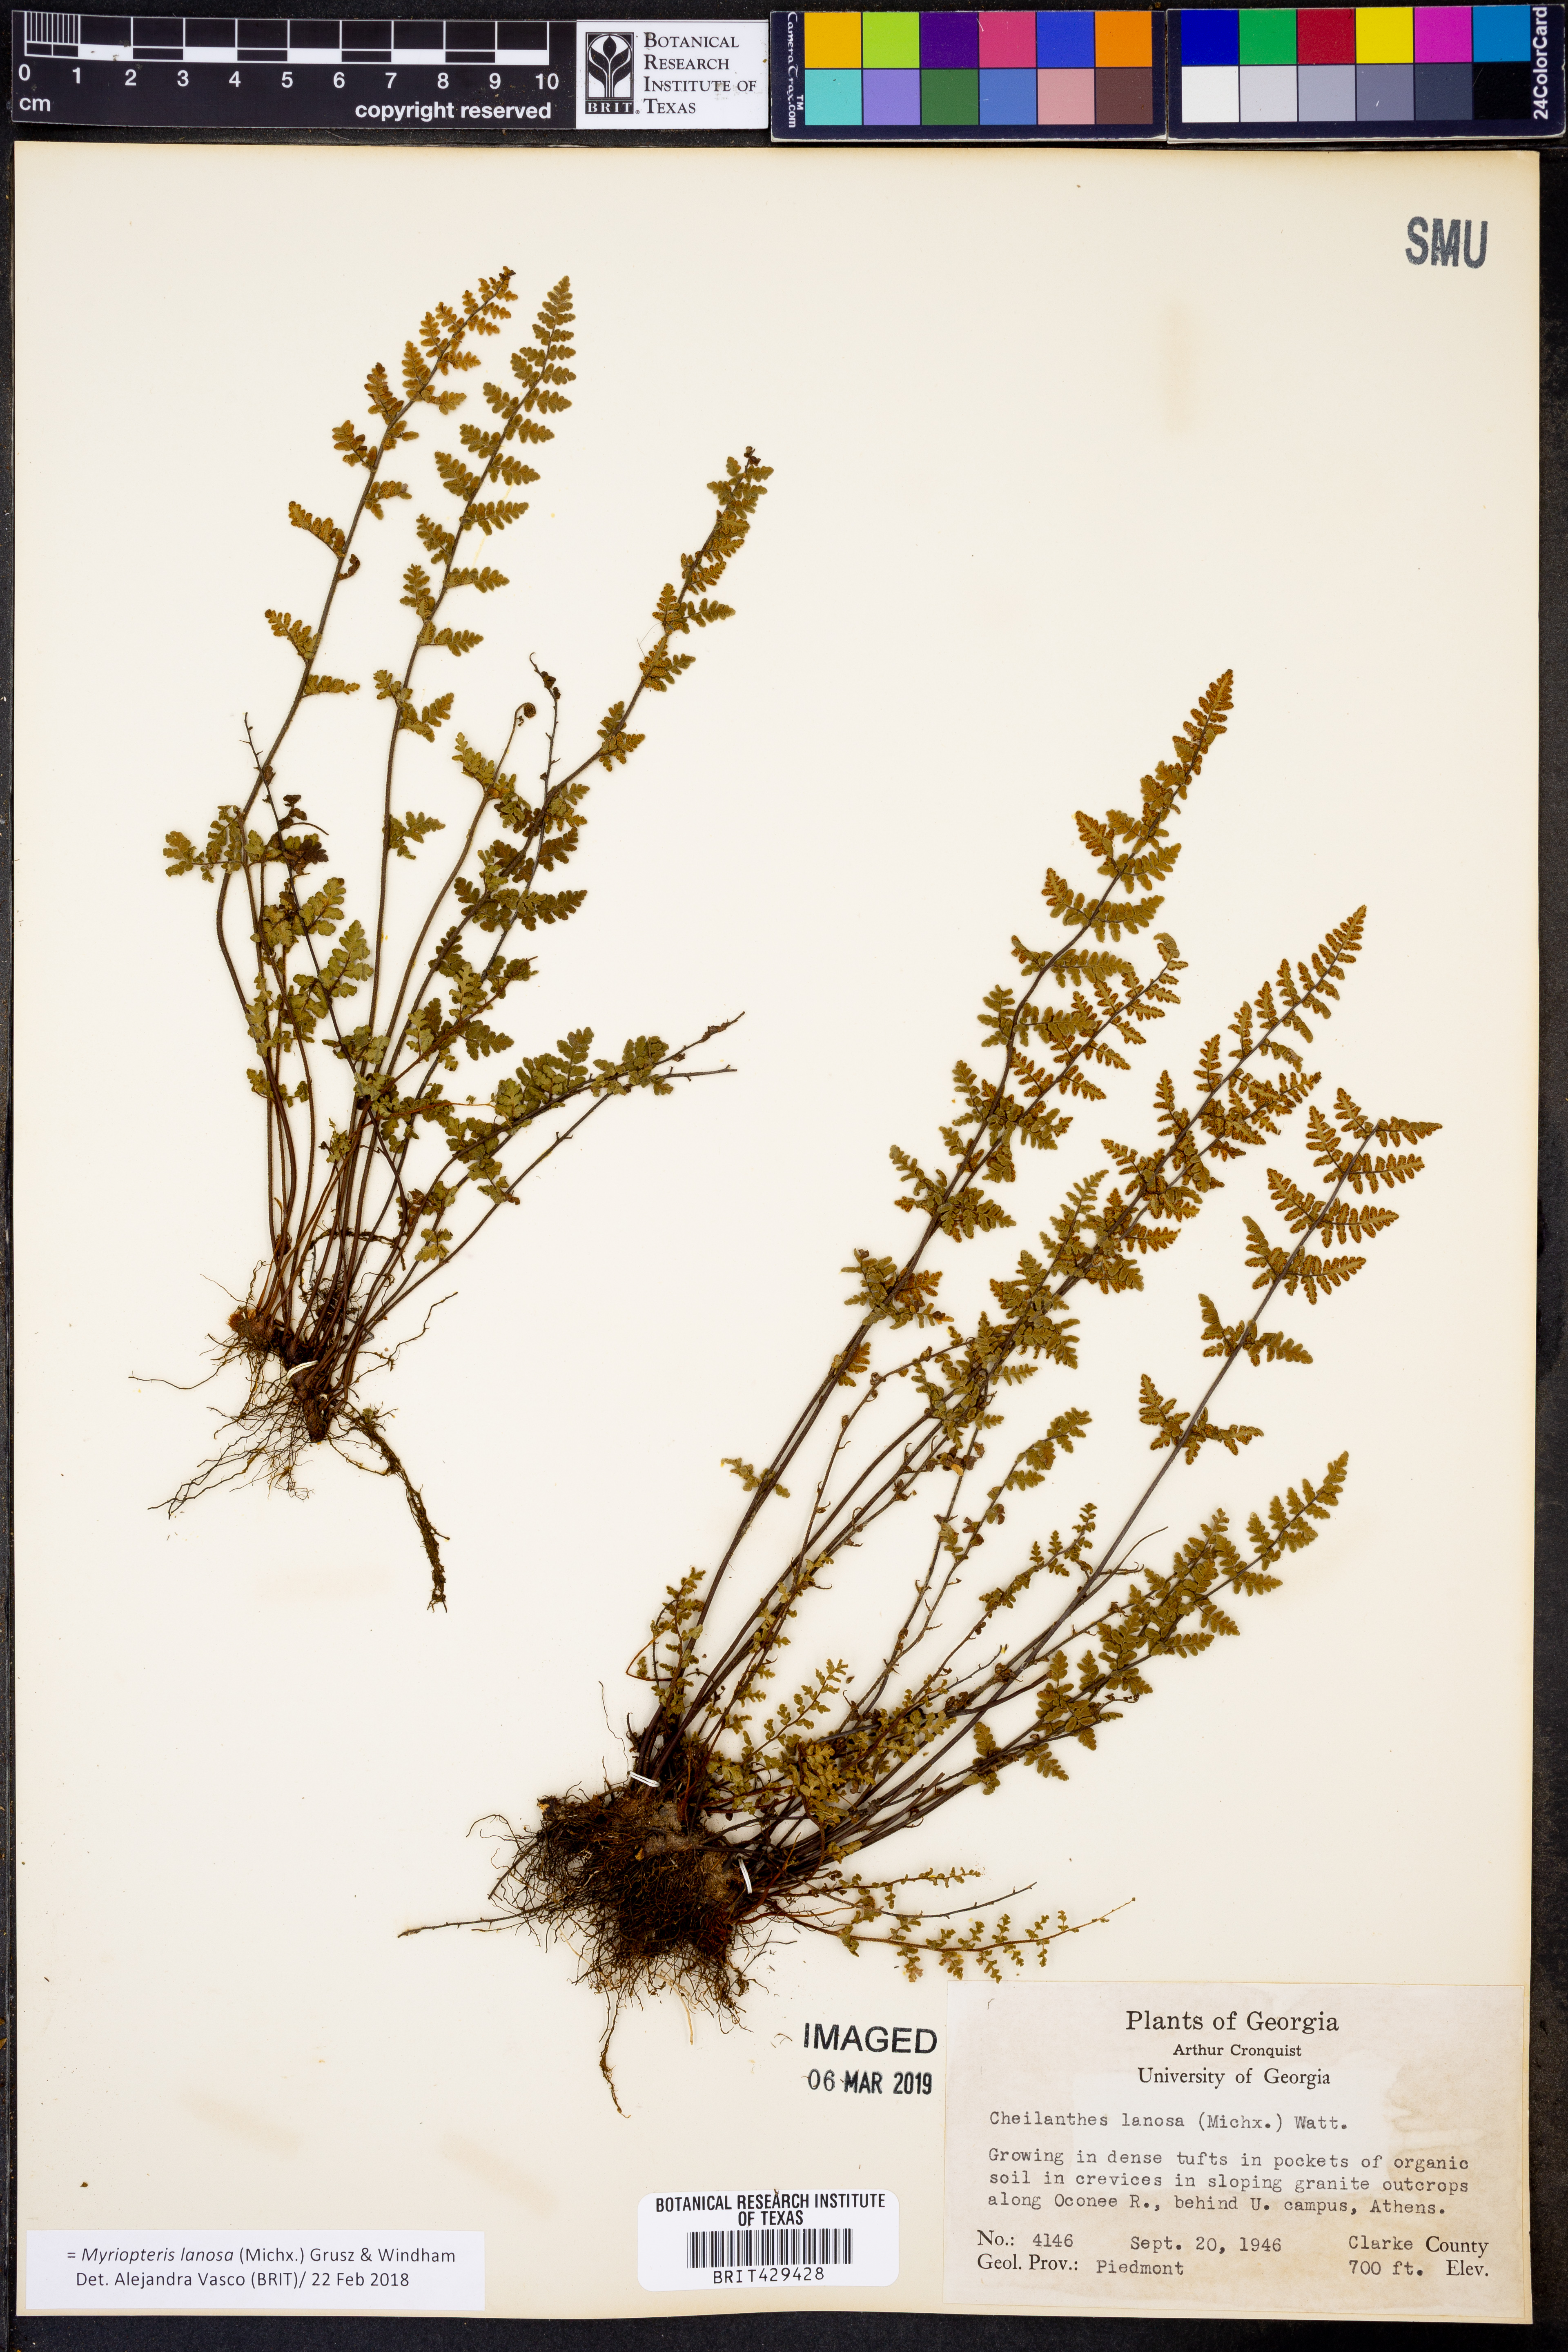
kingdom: Plantae
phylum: Tracheophyta
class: Polypodiopsida
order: Polypodiales
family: Pteridaceae
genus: Myriopteris
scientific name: Myriopteris lanosa
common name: Hairy lip fern
